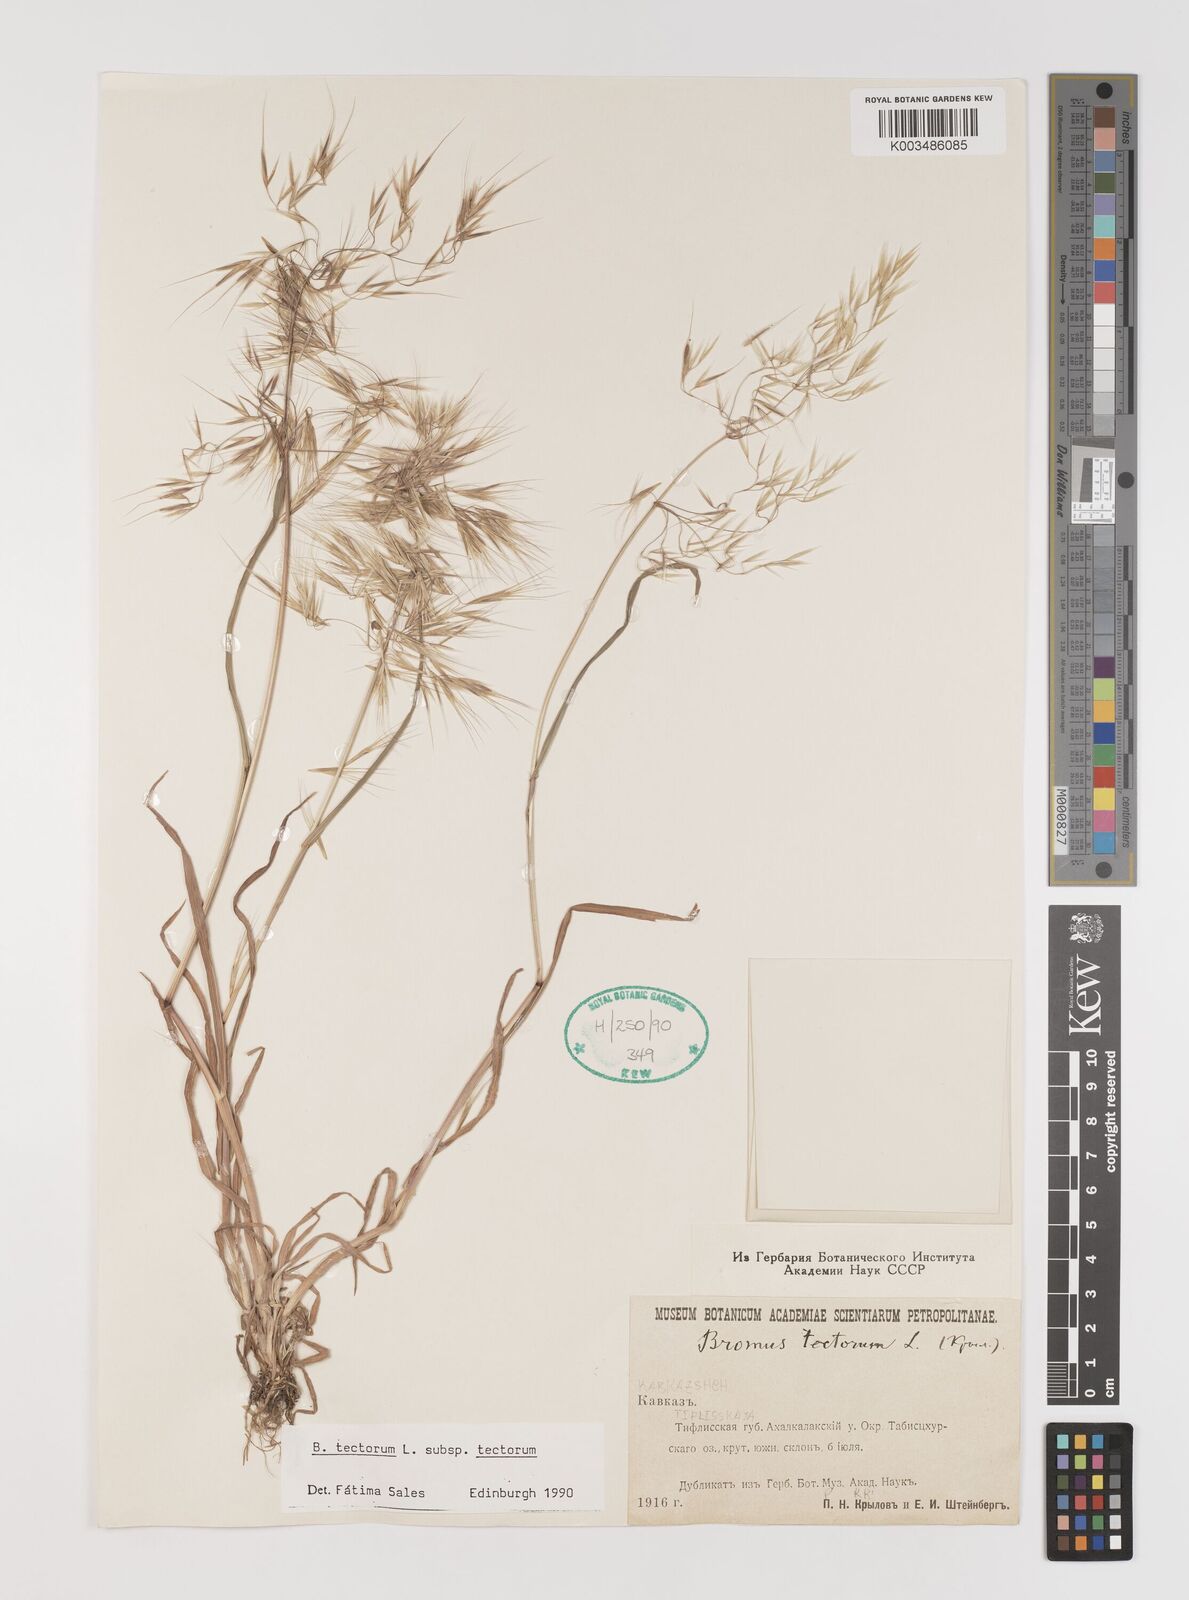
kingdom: Plantae
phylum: Tracheophyta
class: Liliopsida
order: Poales
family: Poaceae
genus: Bromus
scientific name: Bromus tectorum
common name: Cheatgrass
